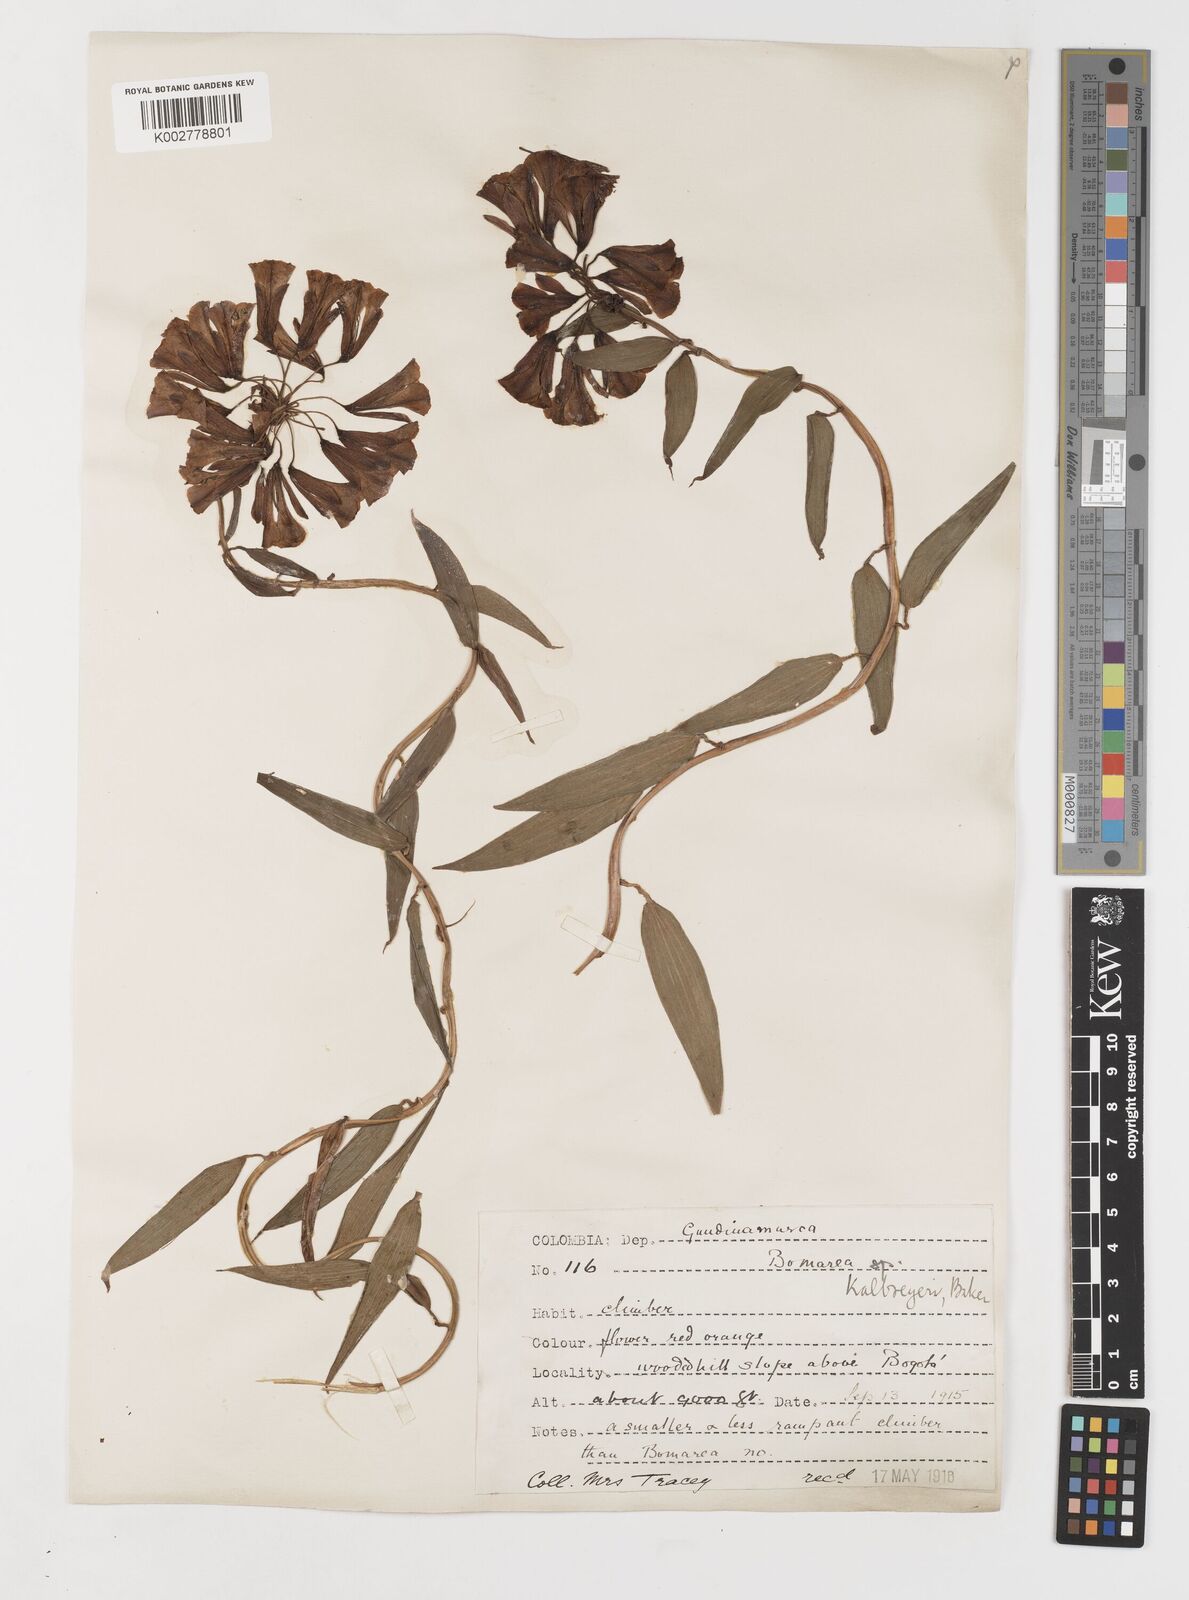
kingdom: Plantae
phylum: Tracheophyta
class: Liliopsida
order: Liliales
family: Alstroemeriaceae
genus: Bomarea
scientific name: Bomarea hirsuta
